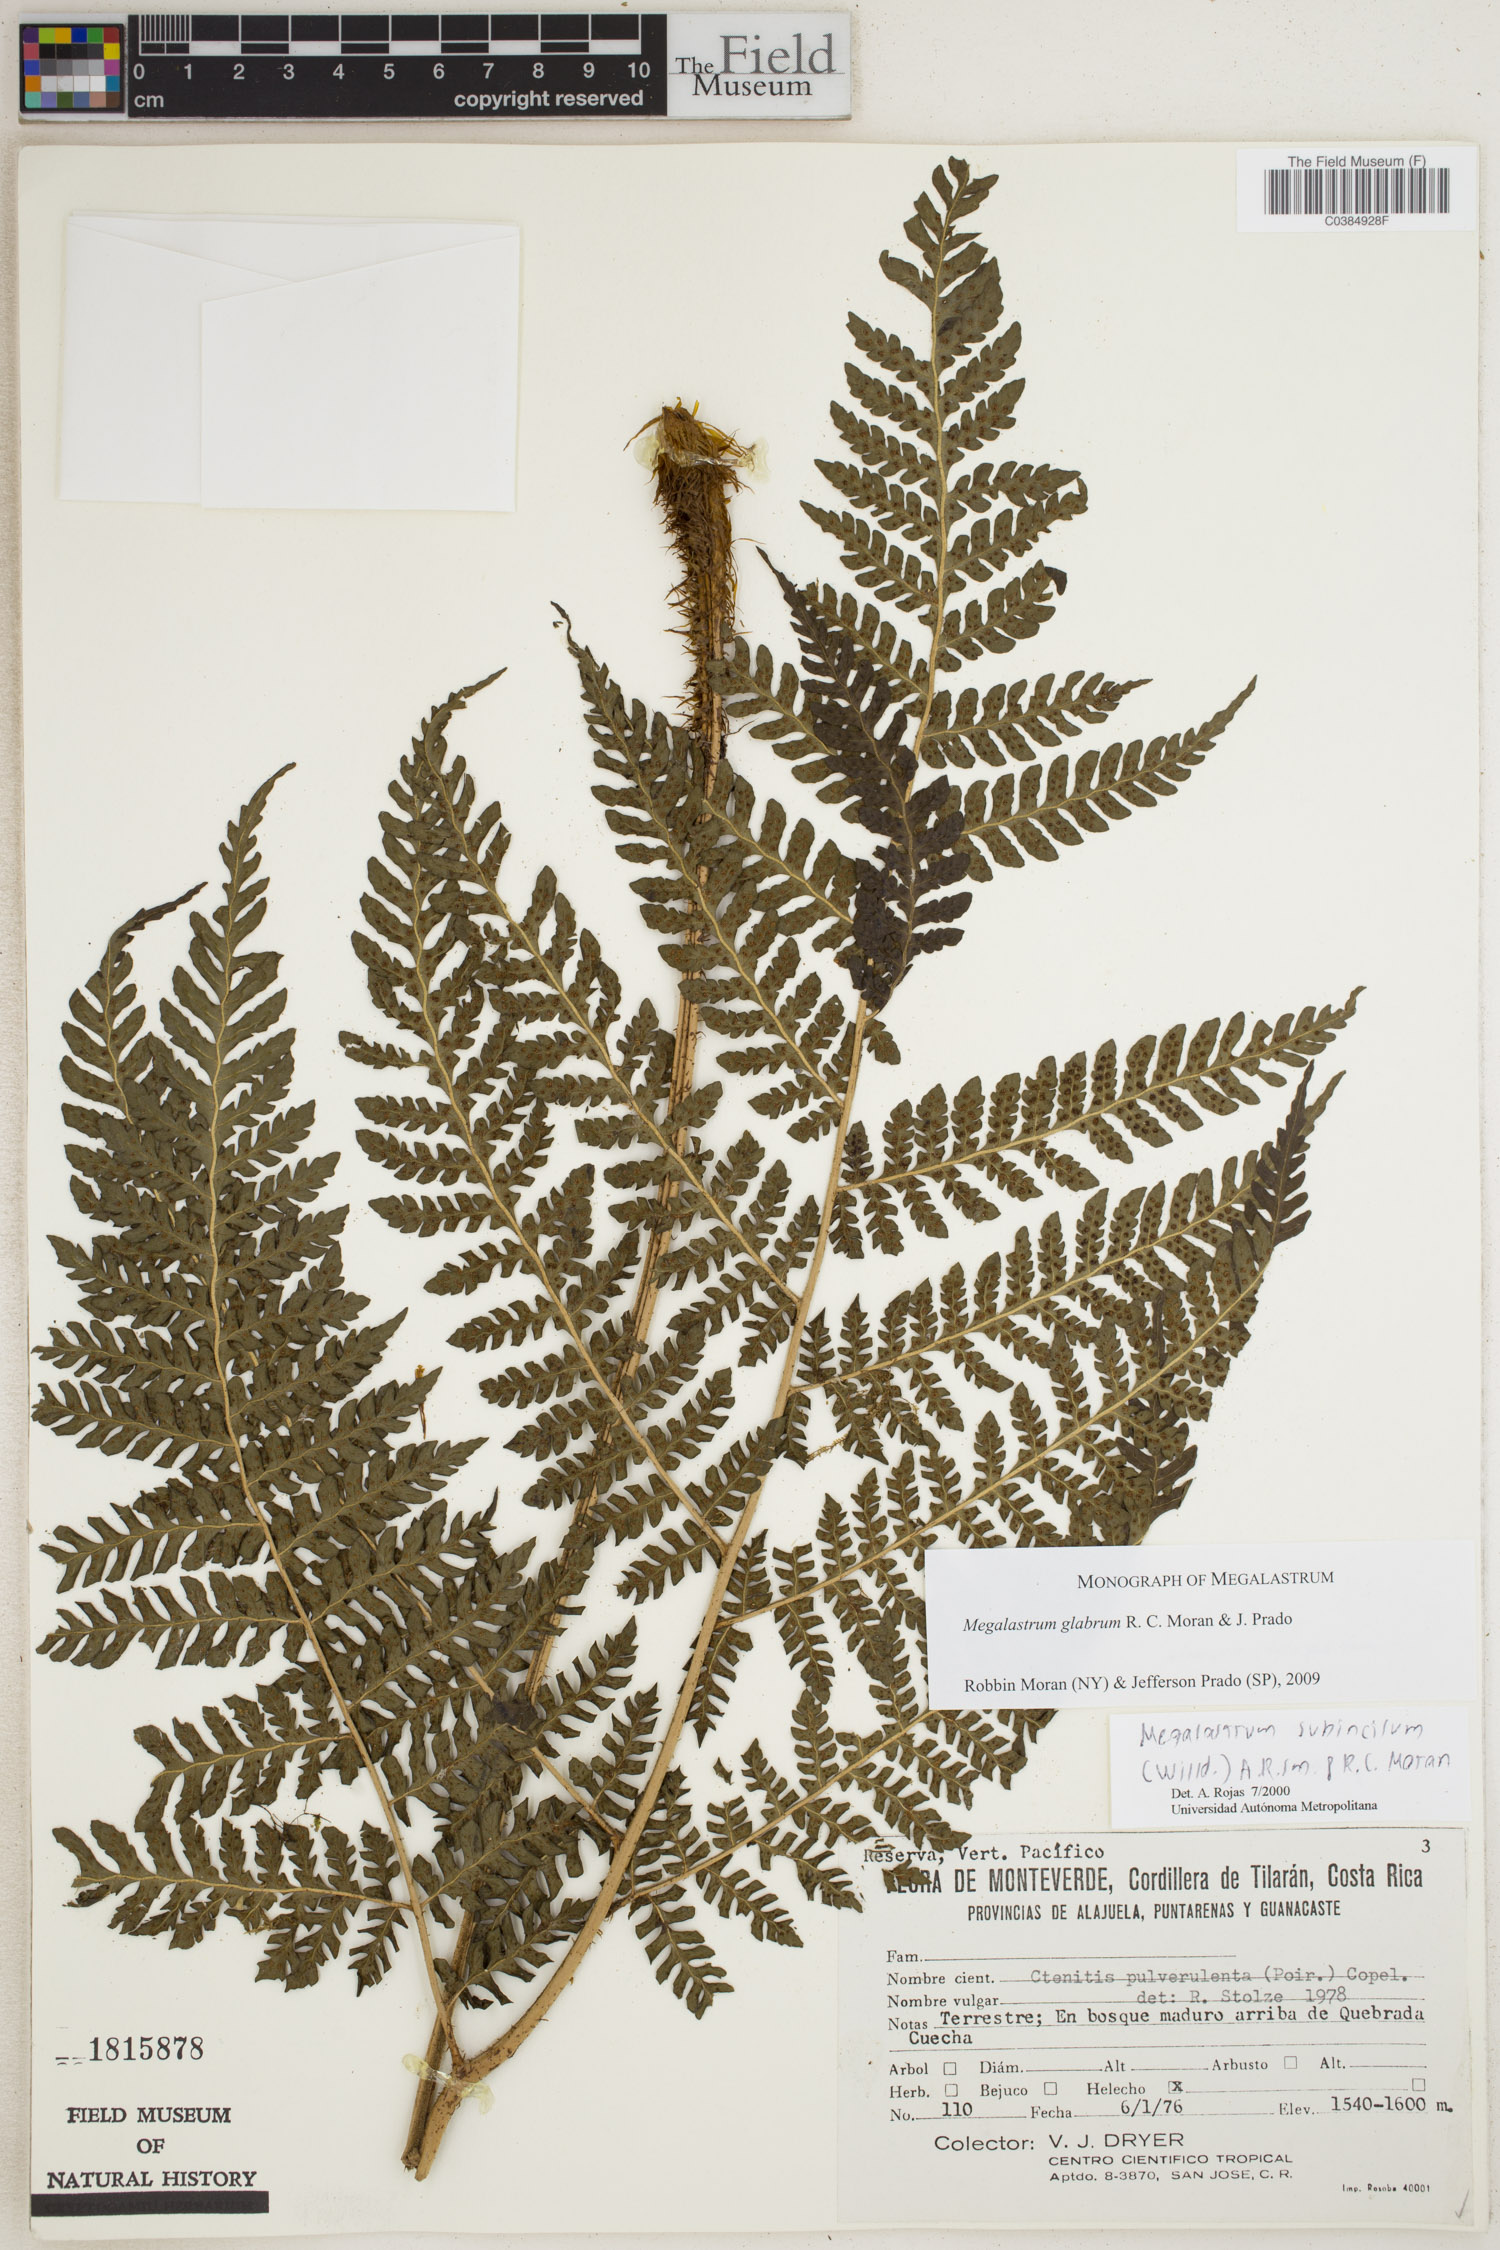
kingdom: Plantae
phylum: Tracheophyta
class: Polypodiopsida
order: Polypodiales
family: Dryopteridaceae
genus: Megalastrum
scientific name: Megalastrum glabrum
